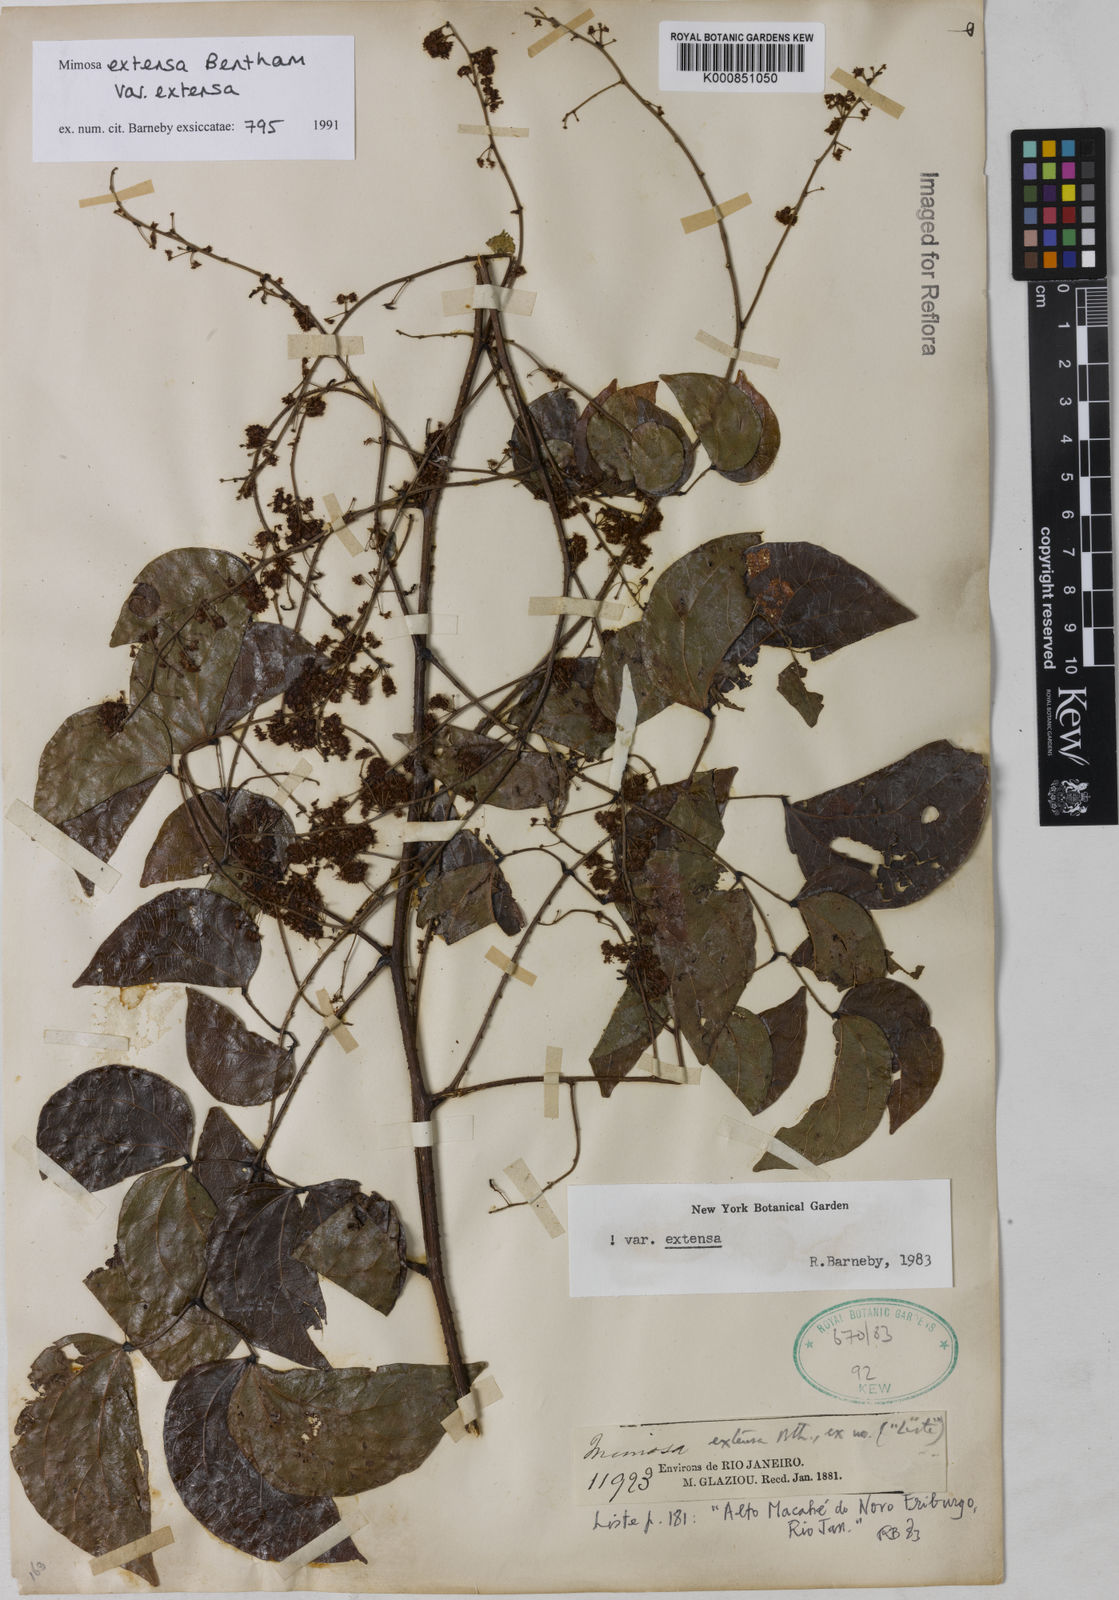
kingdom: Plantae
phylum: Tracheophyta
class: Magnoliopsida
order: Fabales
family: Fabaceae
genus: Mimosa
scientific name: Mimosa extensa
